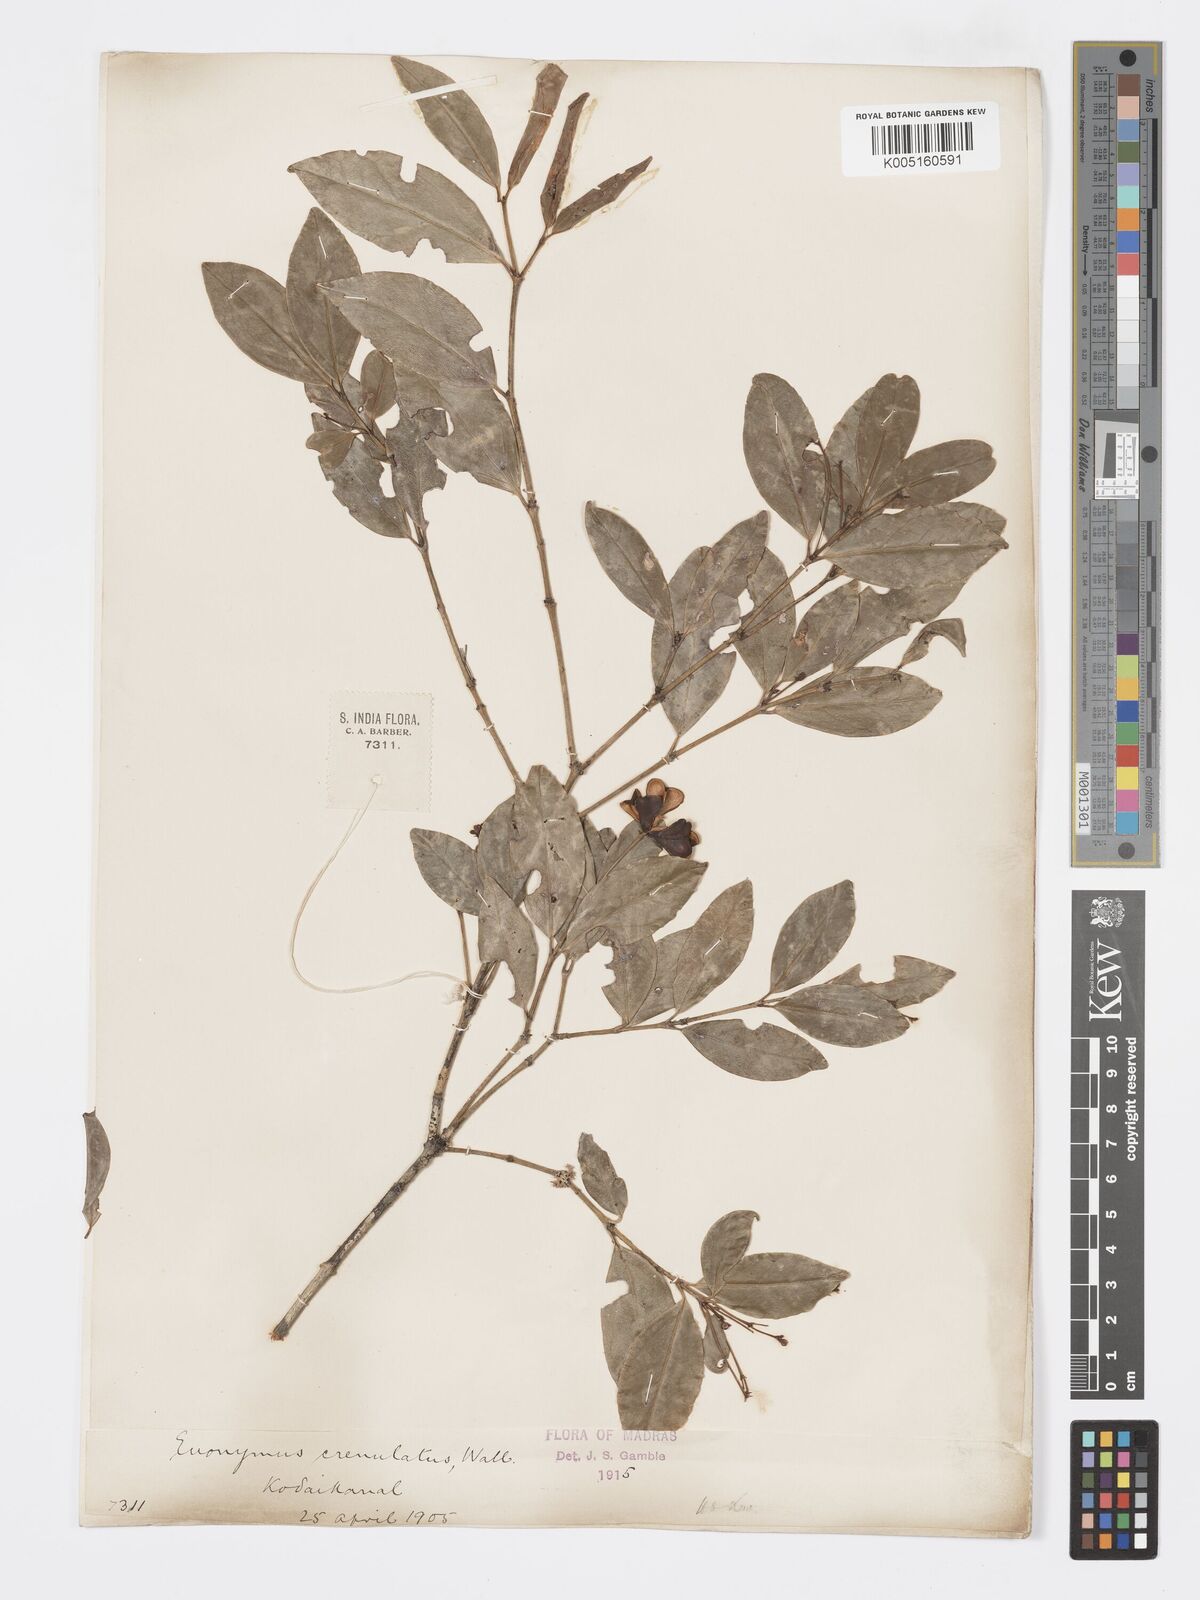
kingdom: Plantae
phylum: Tracheophyta
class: Magnoliopsida
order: Celastrales
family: Celastraceae
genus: Euonymus
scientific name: Euonymus crenulatus
